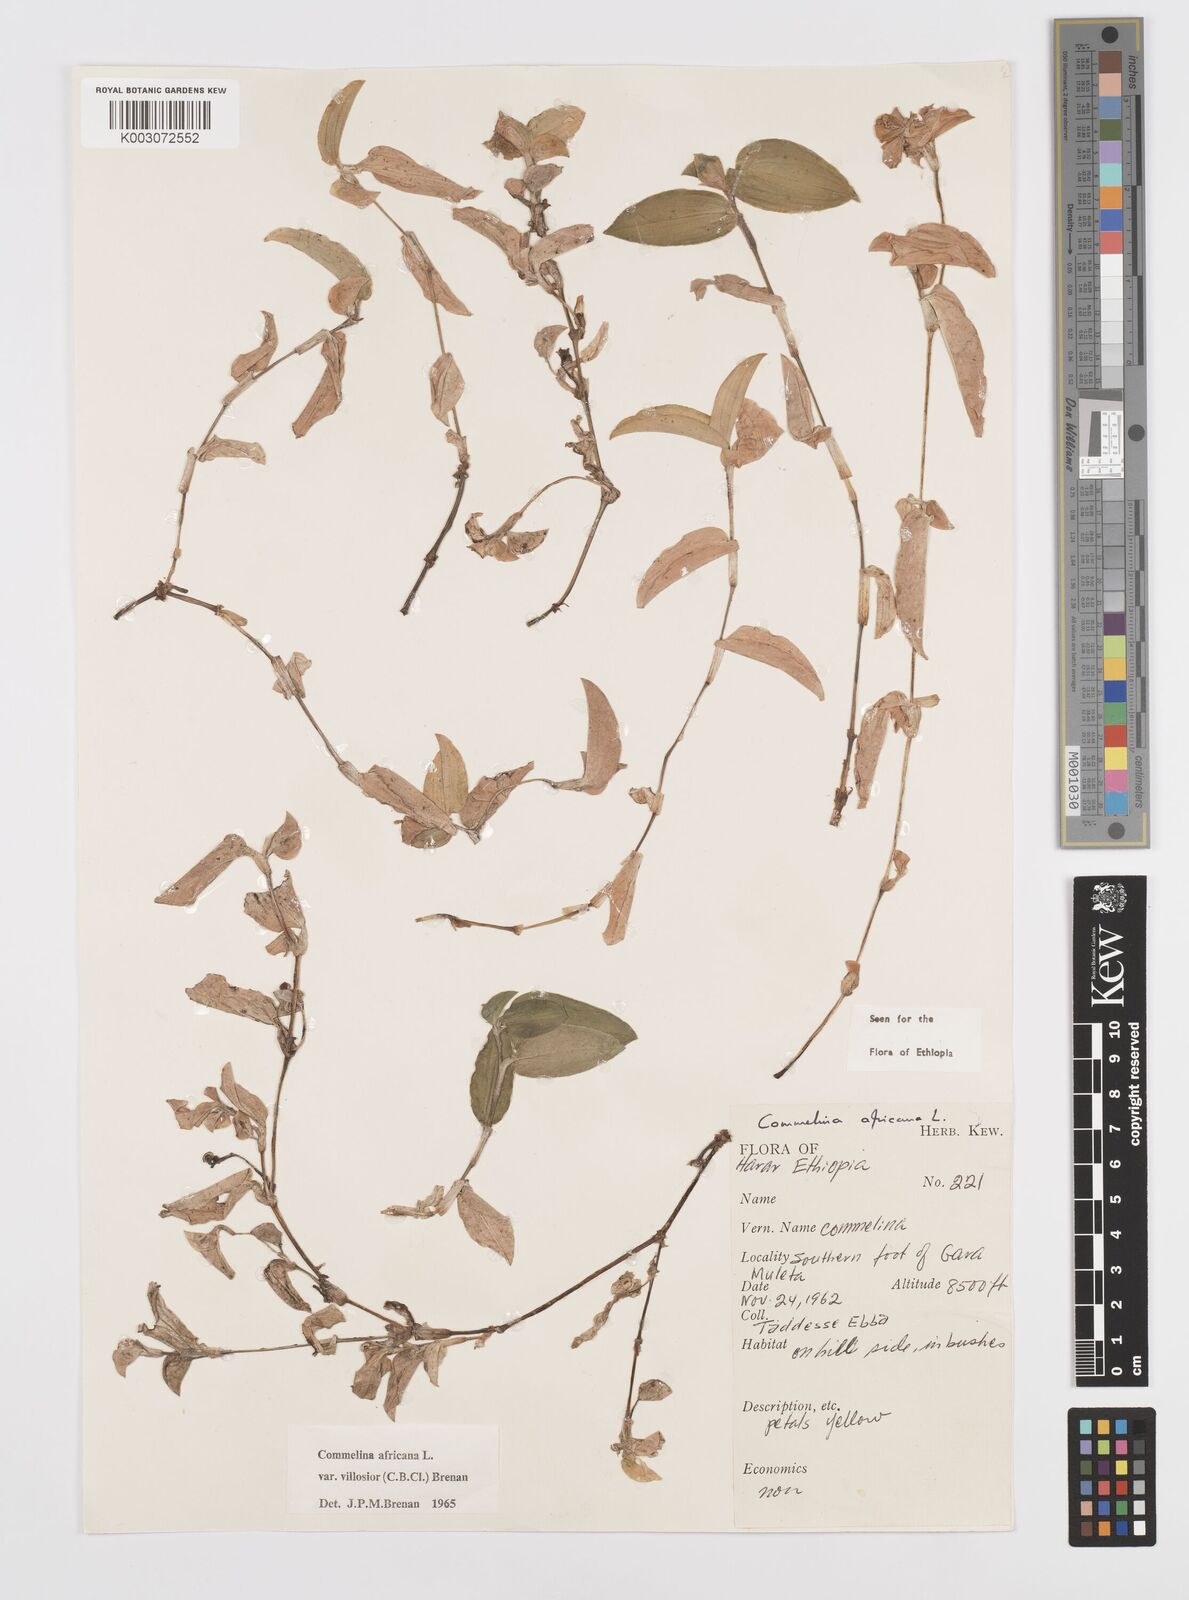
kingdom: Plantae
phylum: Tracheophyta
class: Liliopsida
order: Commelinales
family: Commelinaceae
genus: Commelina
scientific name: Commelina africana
